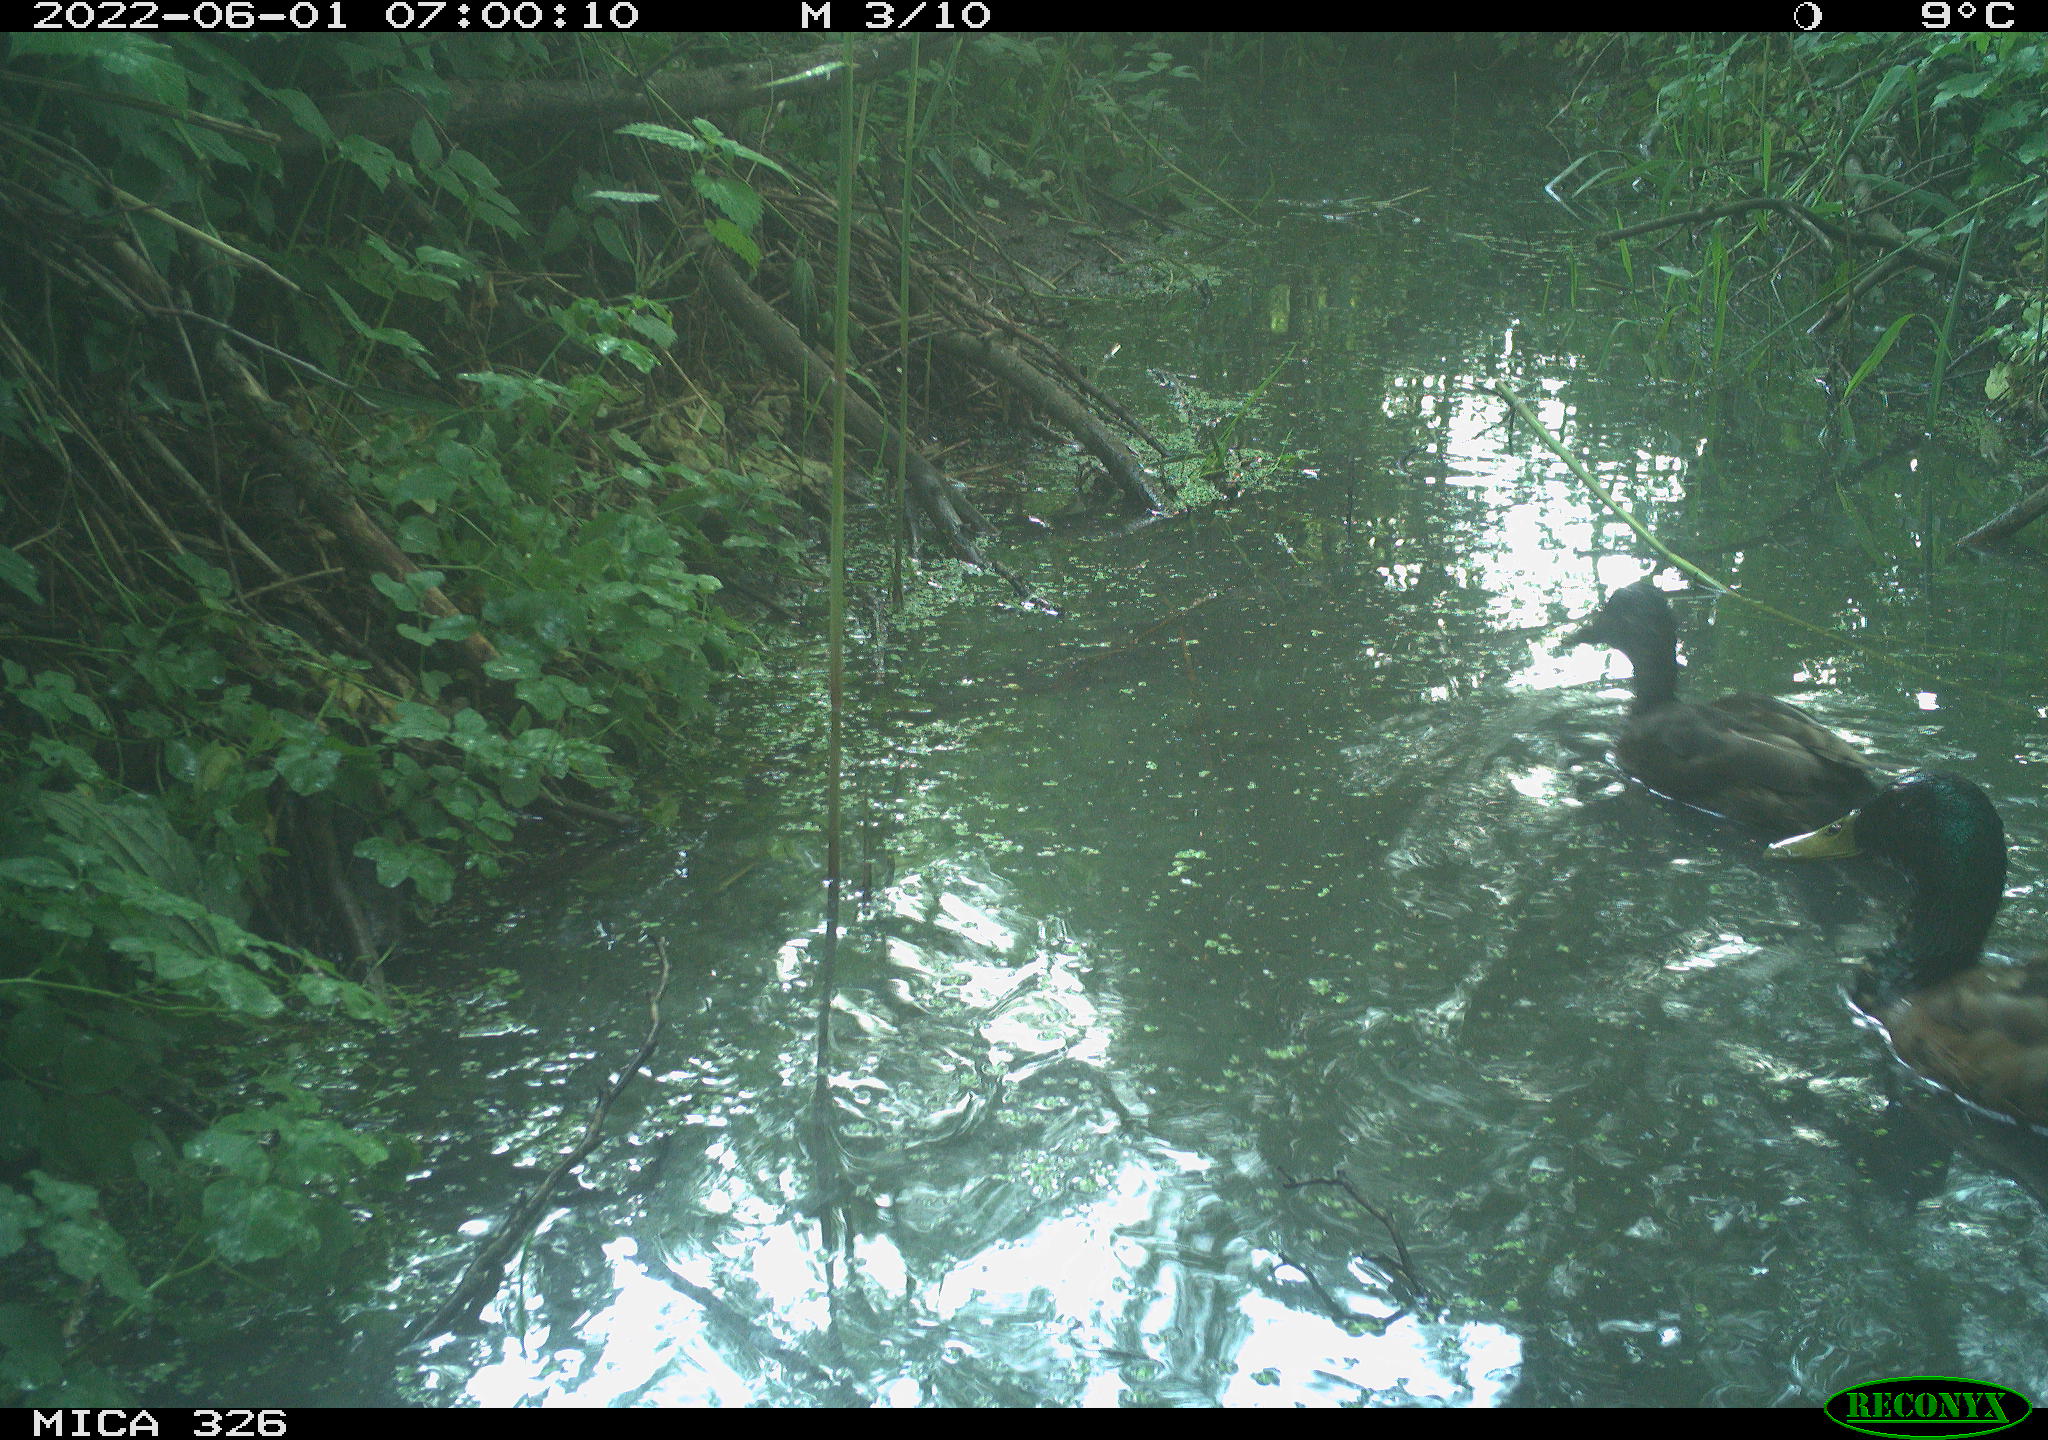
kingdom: Animalia
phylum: Chordata
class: Aves
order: Anseriformes
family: Anatidae
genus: Anas
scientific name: Anas
